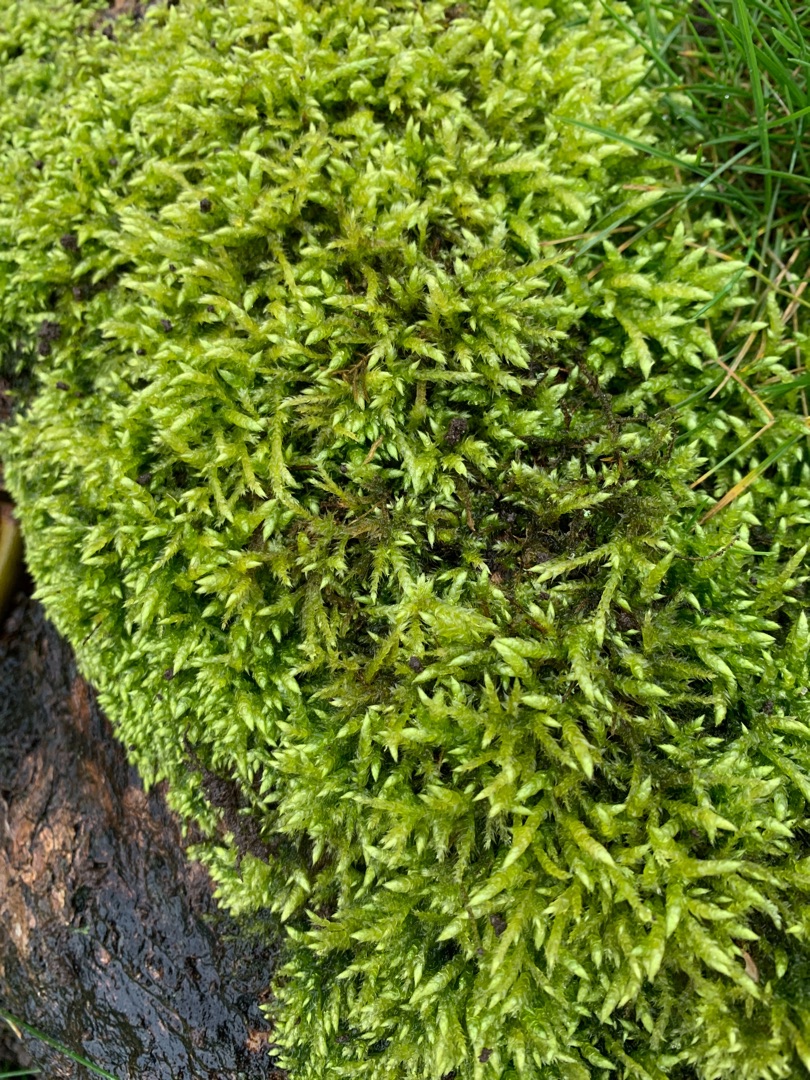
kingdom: Plantae
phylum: Bryophyta
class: Bryopsida
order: Hypnales
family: Brachytheciaceae
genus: Brachythecium
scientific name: Brachythecium rutabulum
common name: Almindelig kortkapsel
